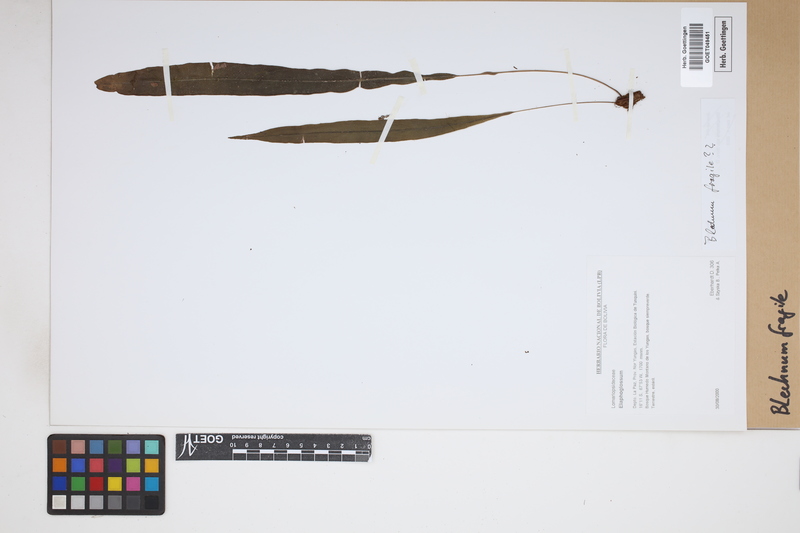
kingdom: Plantae
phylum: Tracheophyta
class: Polypodiopsida
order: Polypodiales
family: Blechnaceae
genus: Lomaridium
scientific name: Lomaridium fragile
